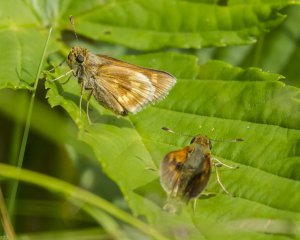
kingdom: Animalia
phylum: Arthropoda
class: Insecta
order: Lepidoptera
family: Hesperiidae
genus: Polites
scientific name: Polites
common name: Long Dash Skipper
